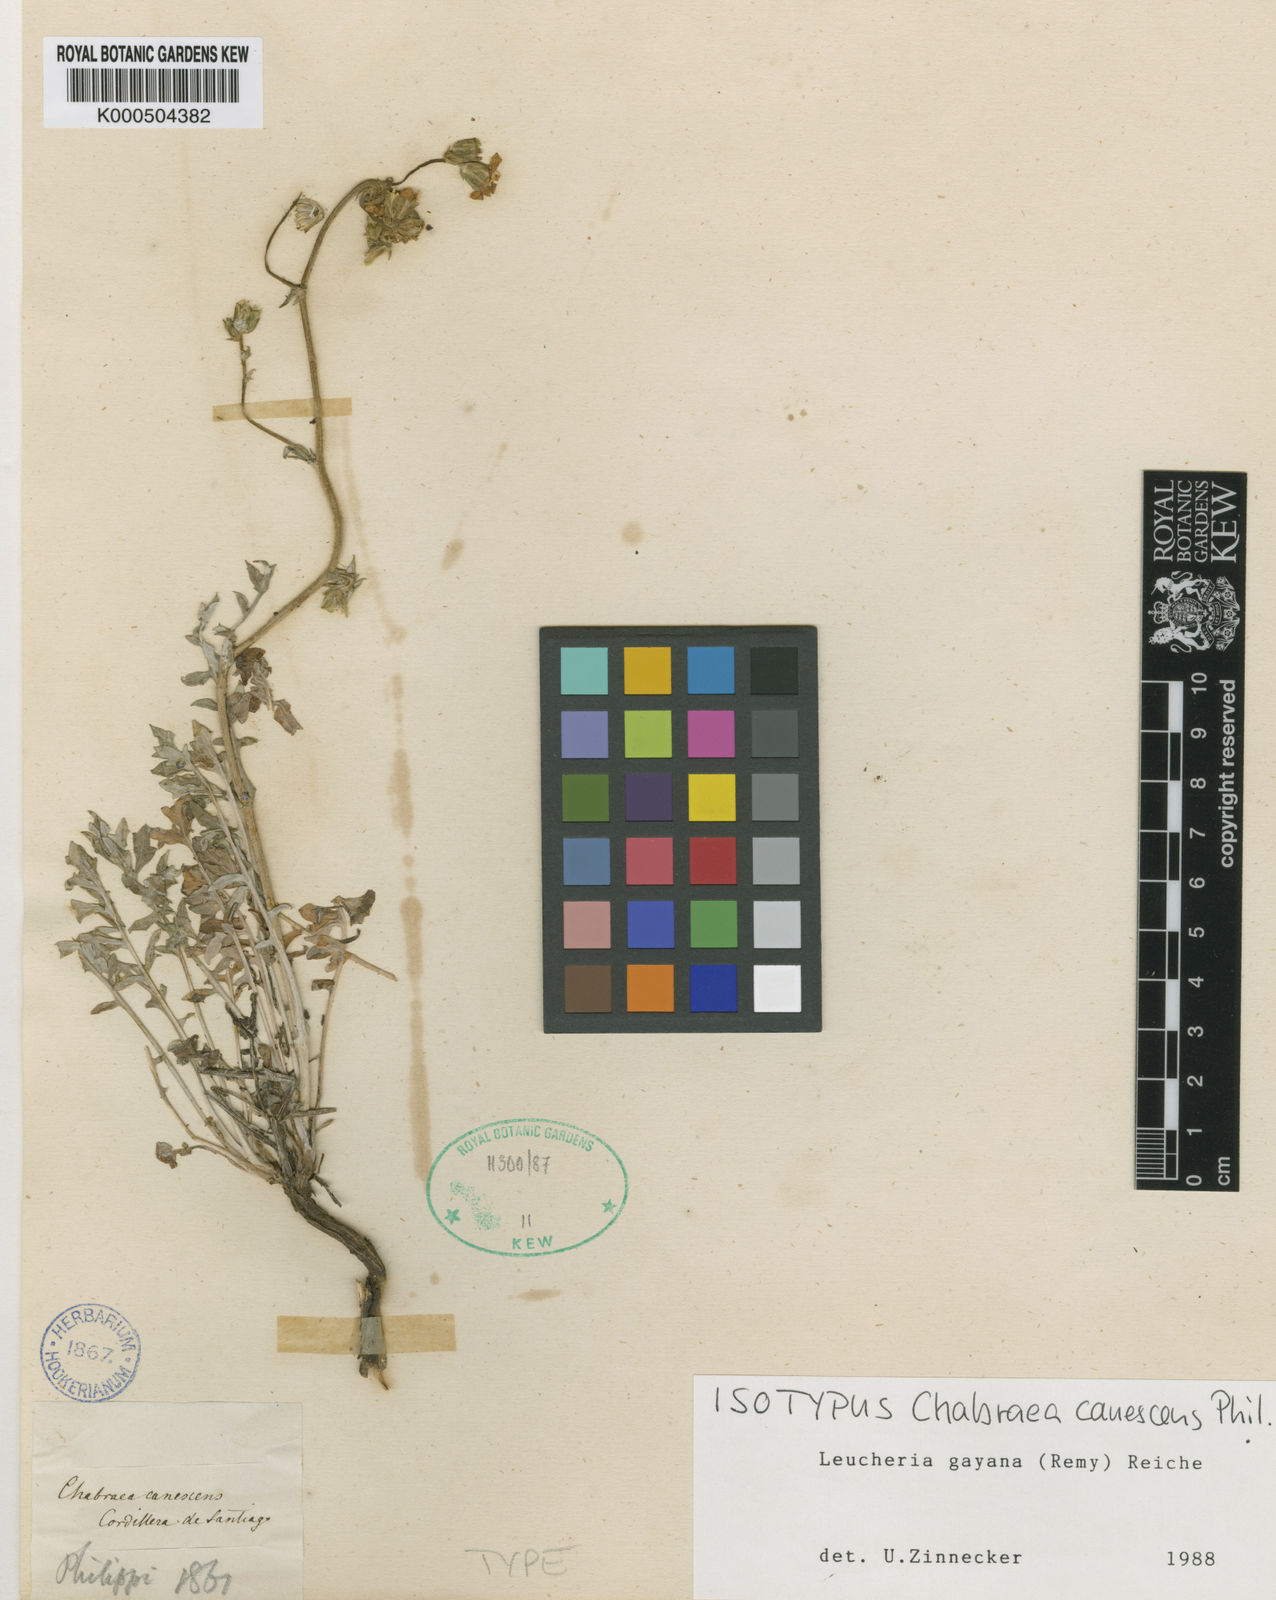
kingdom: Plantae
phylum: Tracheophyta
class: Magnoliopsida
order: Asterales
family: Asteraceae
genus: Leucheria
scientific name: Leucheria gayana
